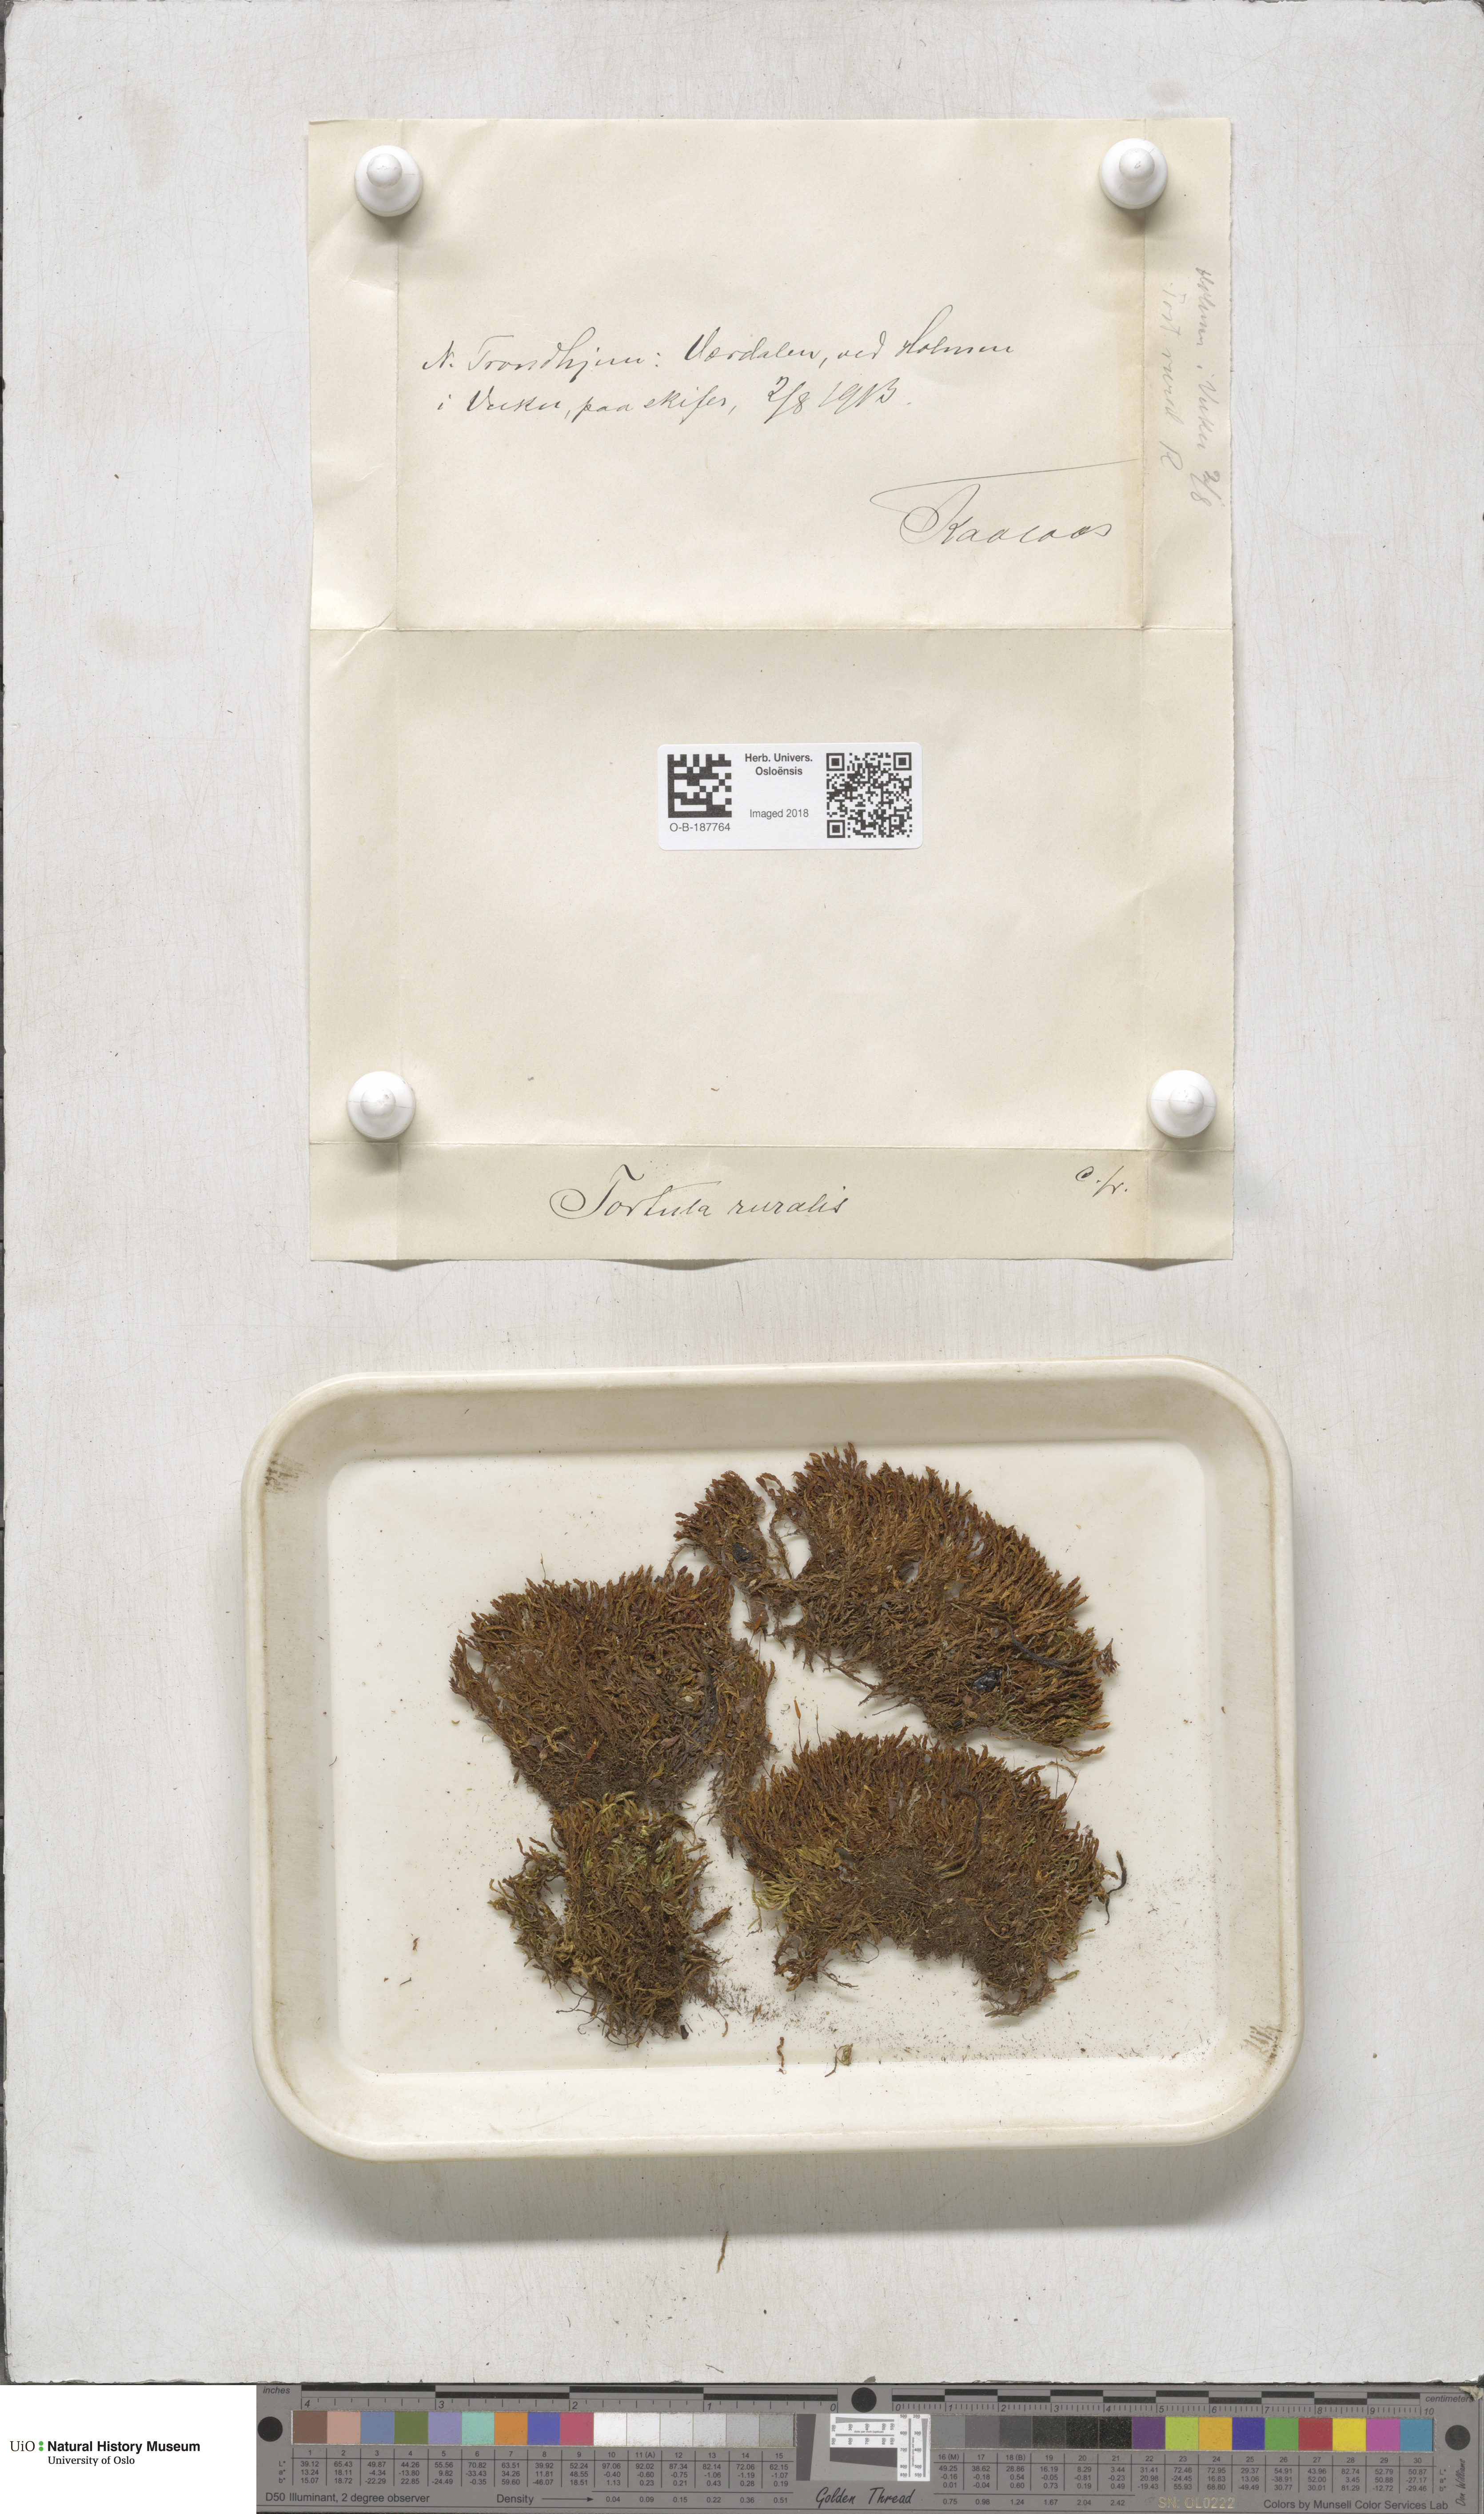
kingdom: Plantae
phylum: Bryophyta
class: Bryopsida
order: Pottiales
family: Pottiaceae
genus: Syntrichia
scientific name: Syntrichia ruralis
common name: Sidewalk screw moss
